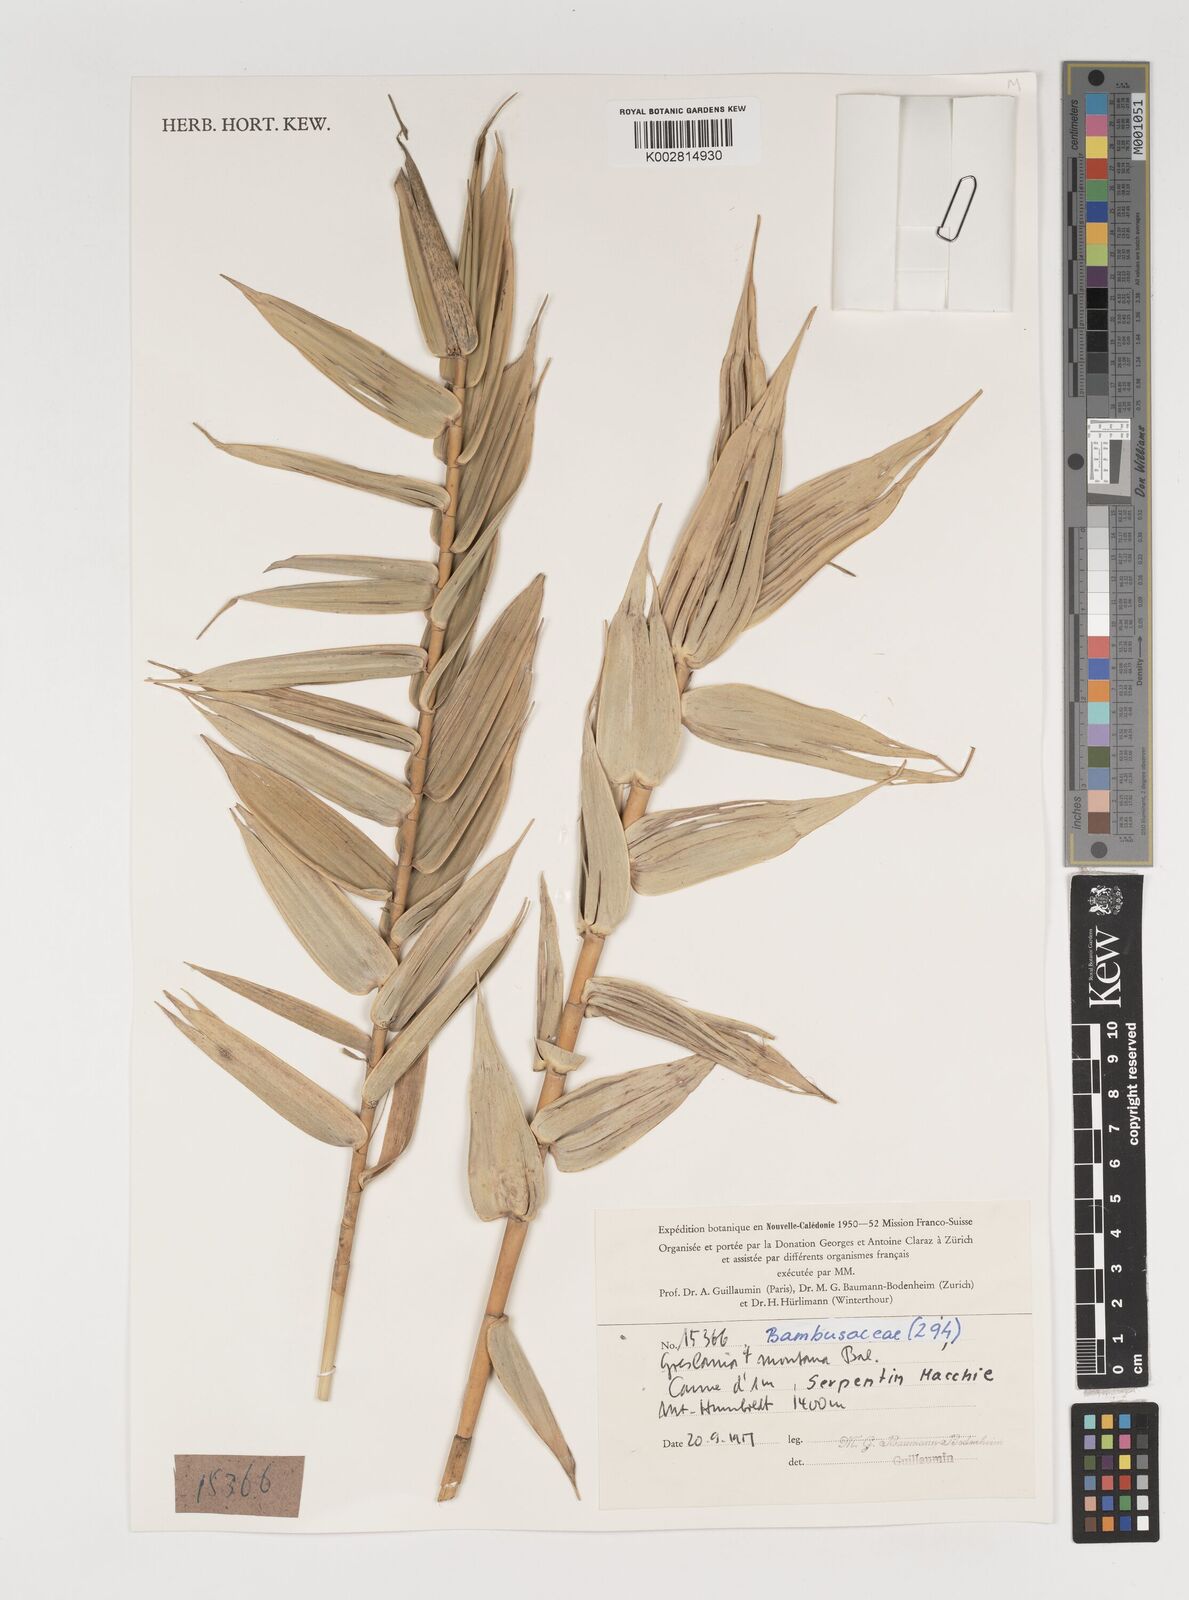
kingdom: Plantae
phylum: Tracheophyta
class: Liliopsida
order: Poales
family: Poaceae
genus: Greslania
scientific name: Greslania
